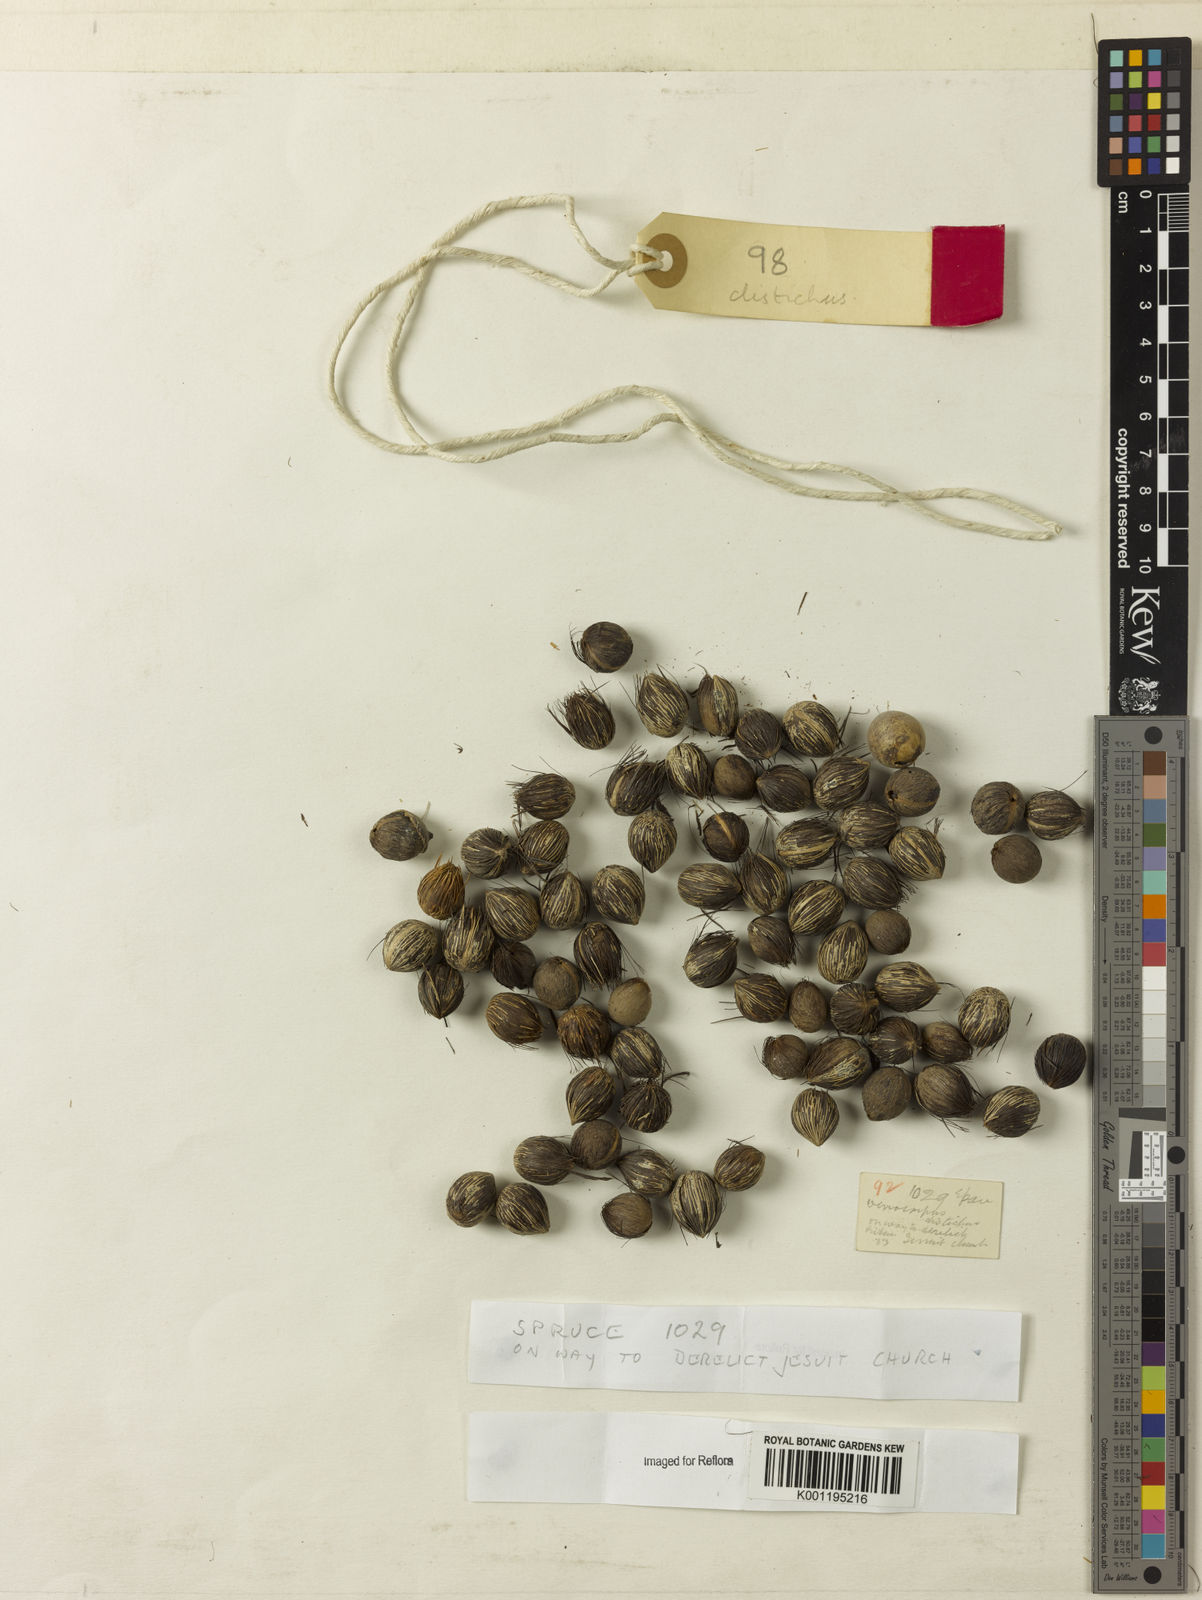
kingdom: Plantae
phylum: Tracheophyta
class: Liliopsida
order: Arecales
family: Arecaceae
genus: Oenocarpus
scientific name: Oenocarpus distichus
